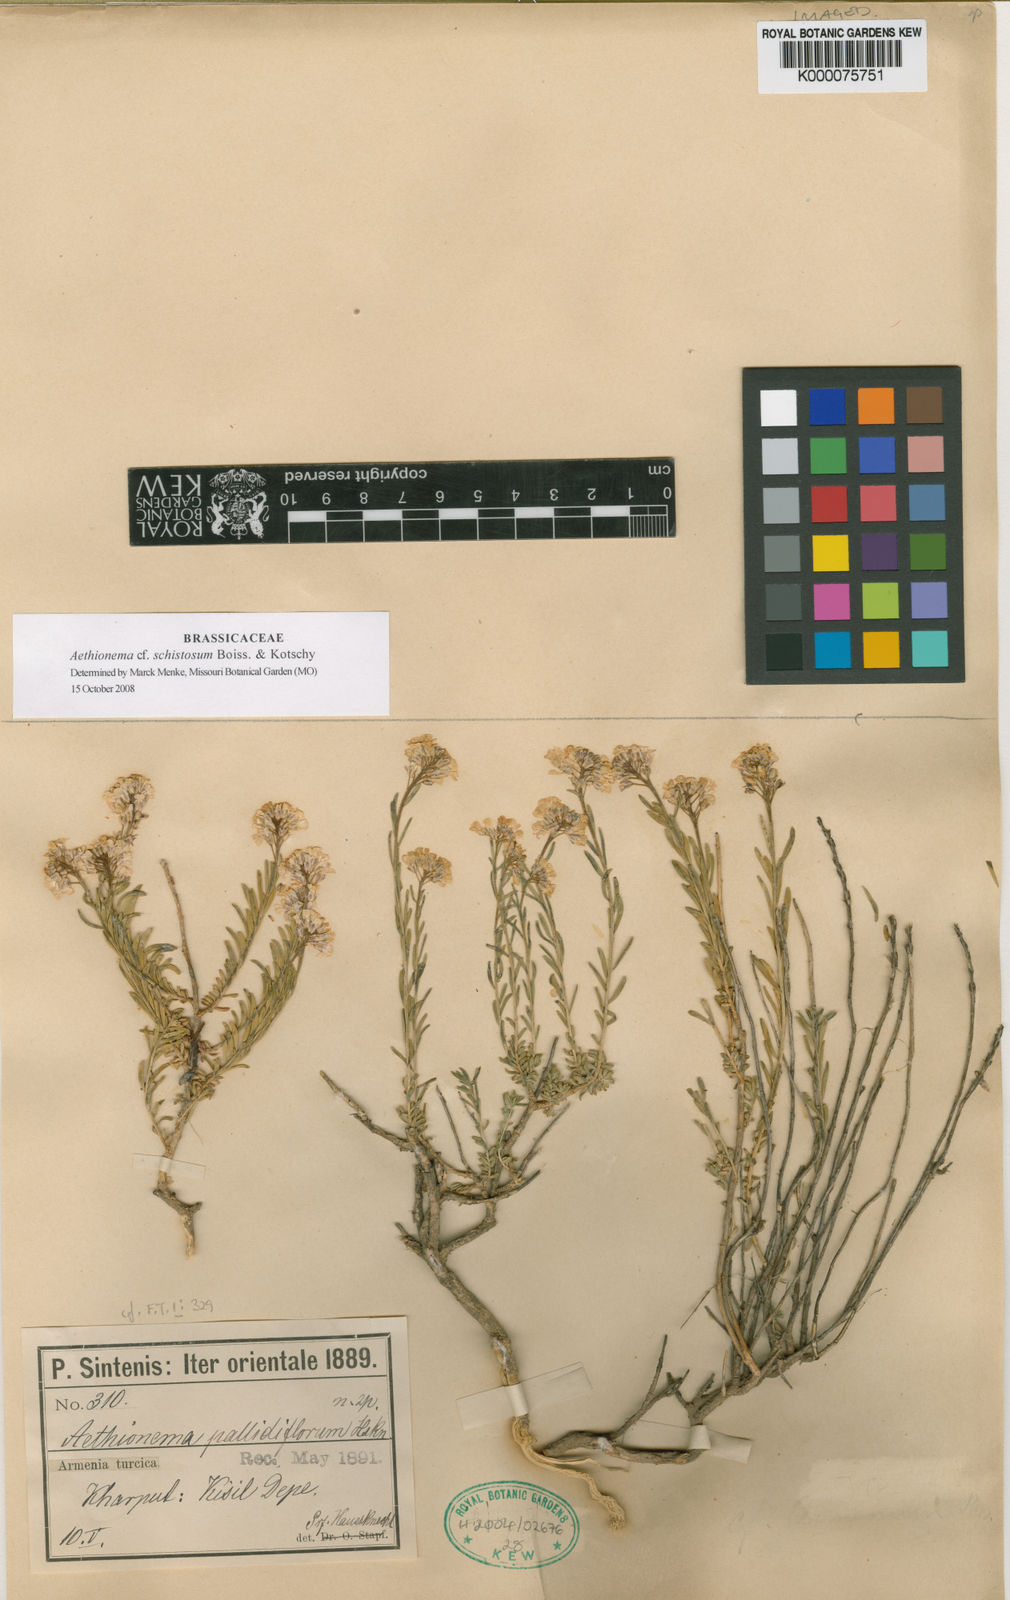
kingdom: Plantae
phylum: Tracheophyta
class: Magnoliopsida
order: Brassicales
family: Brassicaceae
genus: Aethionema
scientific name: Aethionema grandiflorum
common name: Persian stonecress
